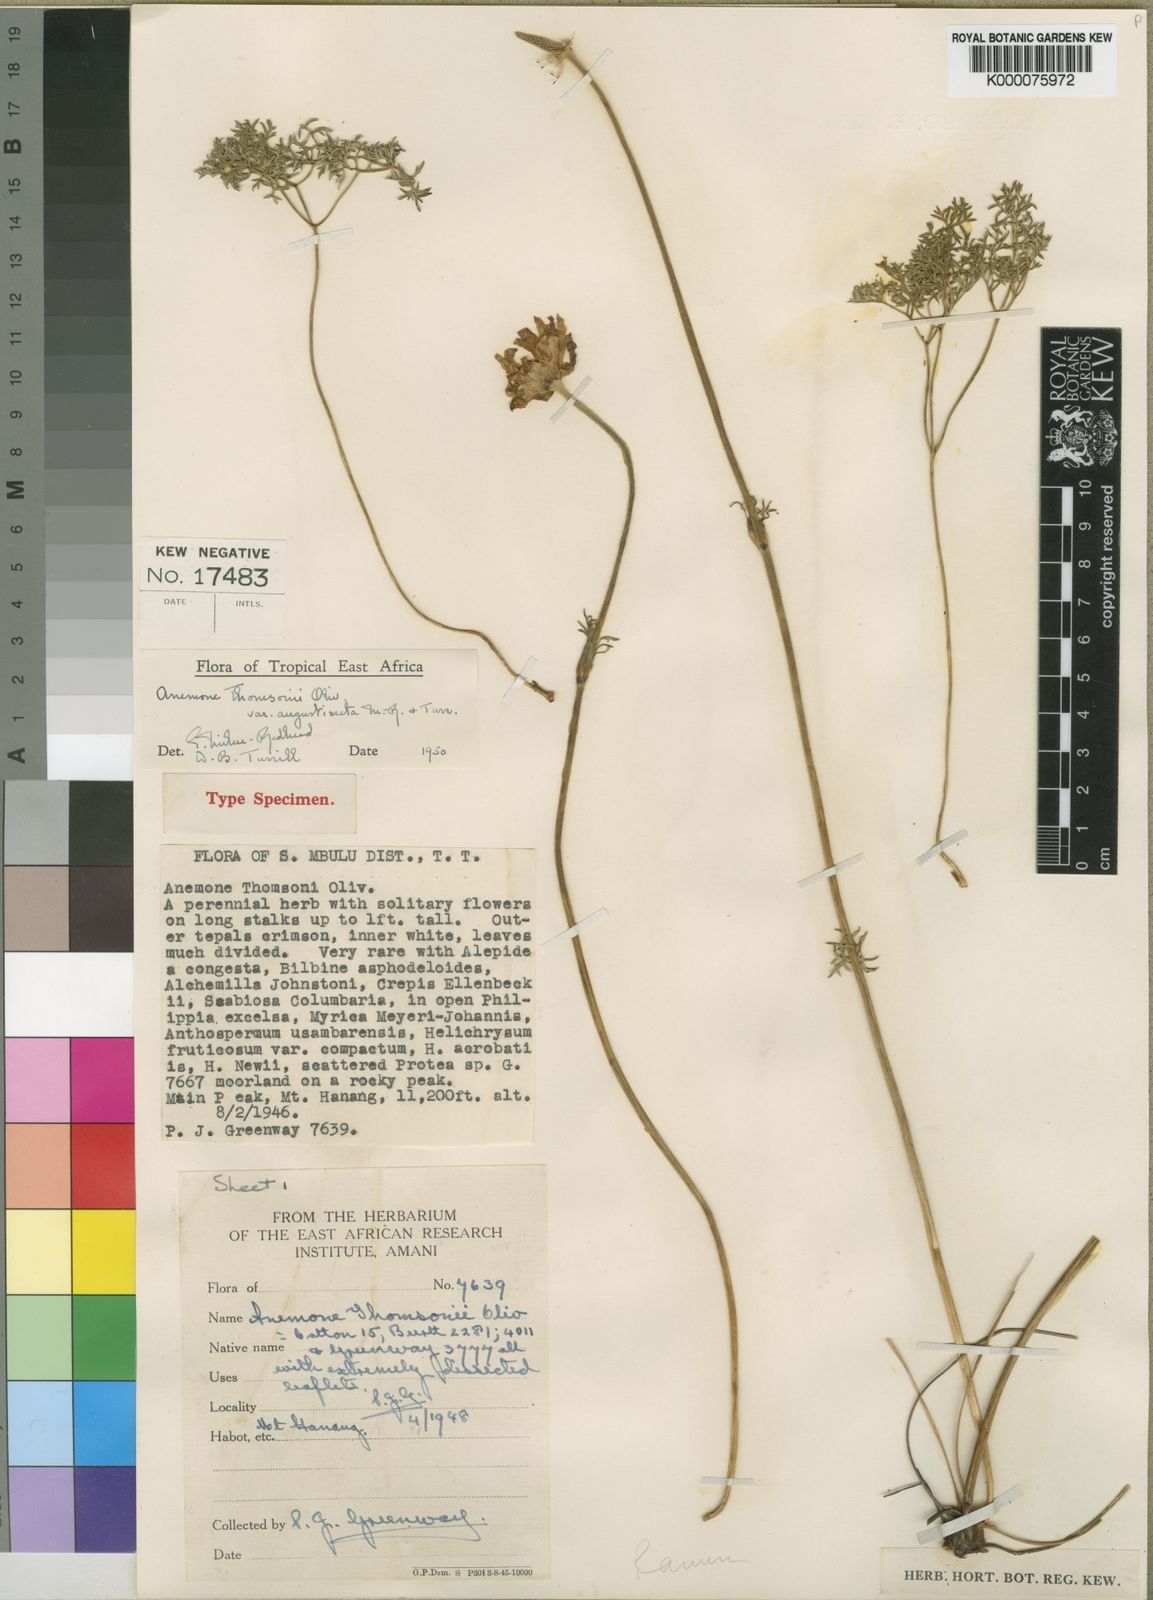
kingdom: Plantae
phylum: Tracheophyta
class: Magnoliopsida
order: Ranunculales
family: Ranunculaceae
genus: Anemone
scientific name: Anemone thomsonii
